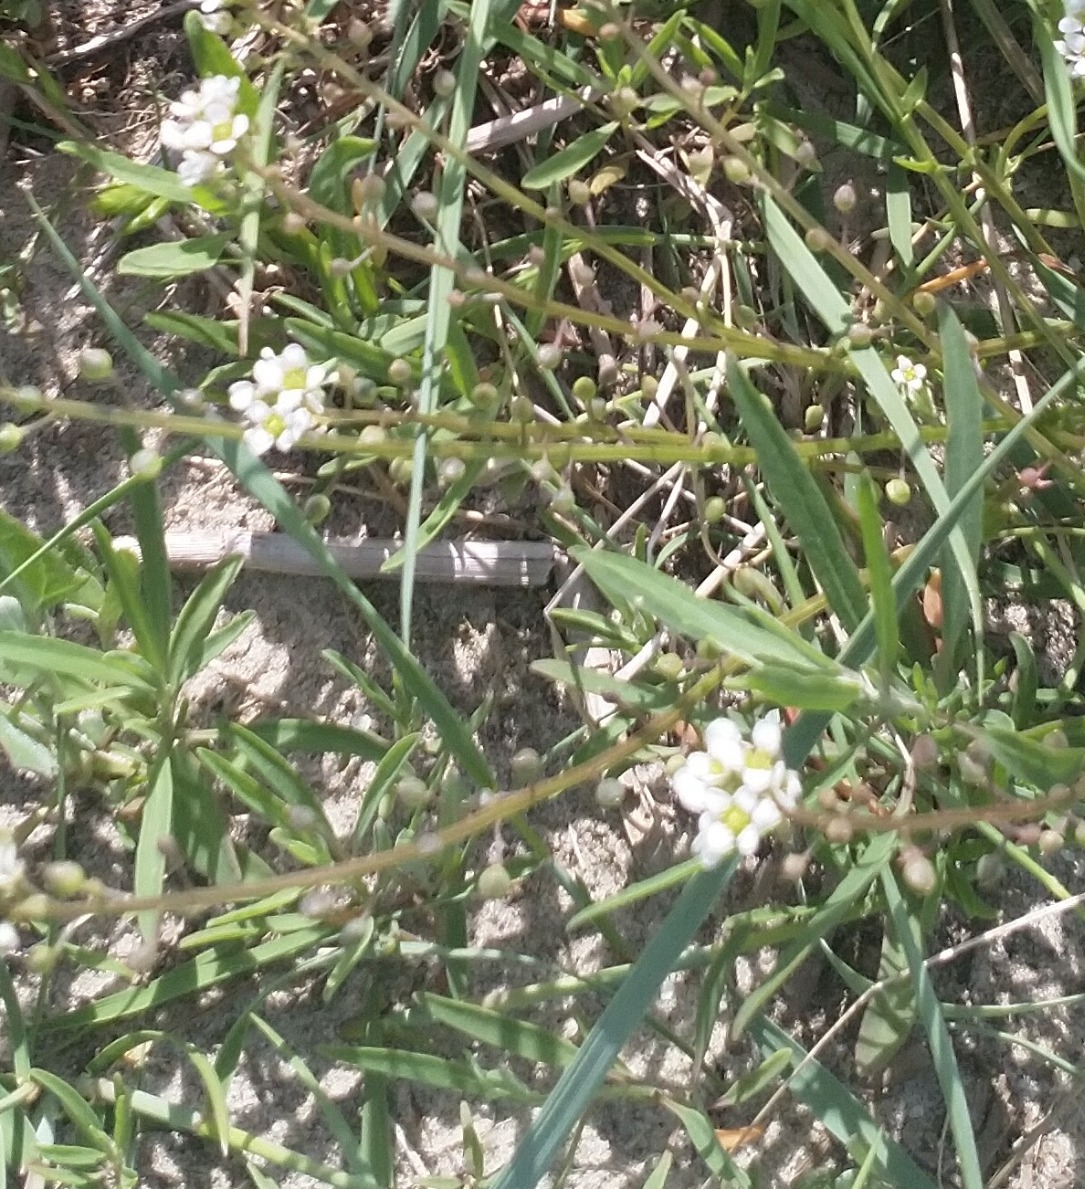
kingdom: Plantae
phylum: Tracheophyta
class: Magnoliopsida
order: Brassicales
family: Brassicaceae
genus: Cochlearia
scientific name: Cochlearia officinalis
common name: Læge-kokleare (underart)
